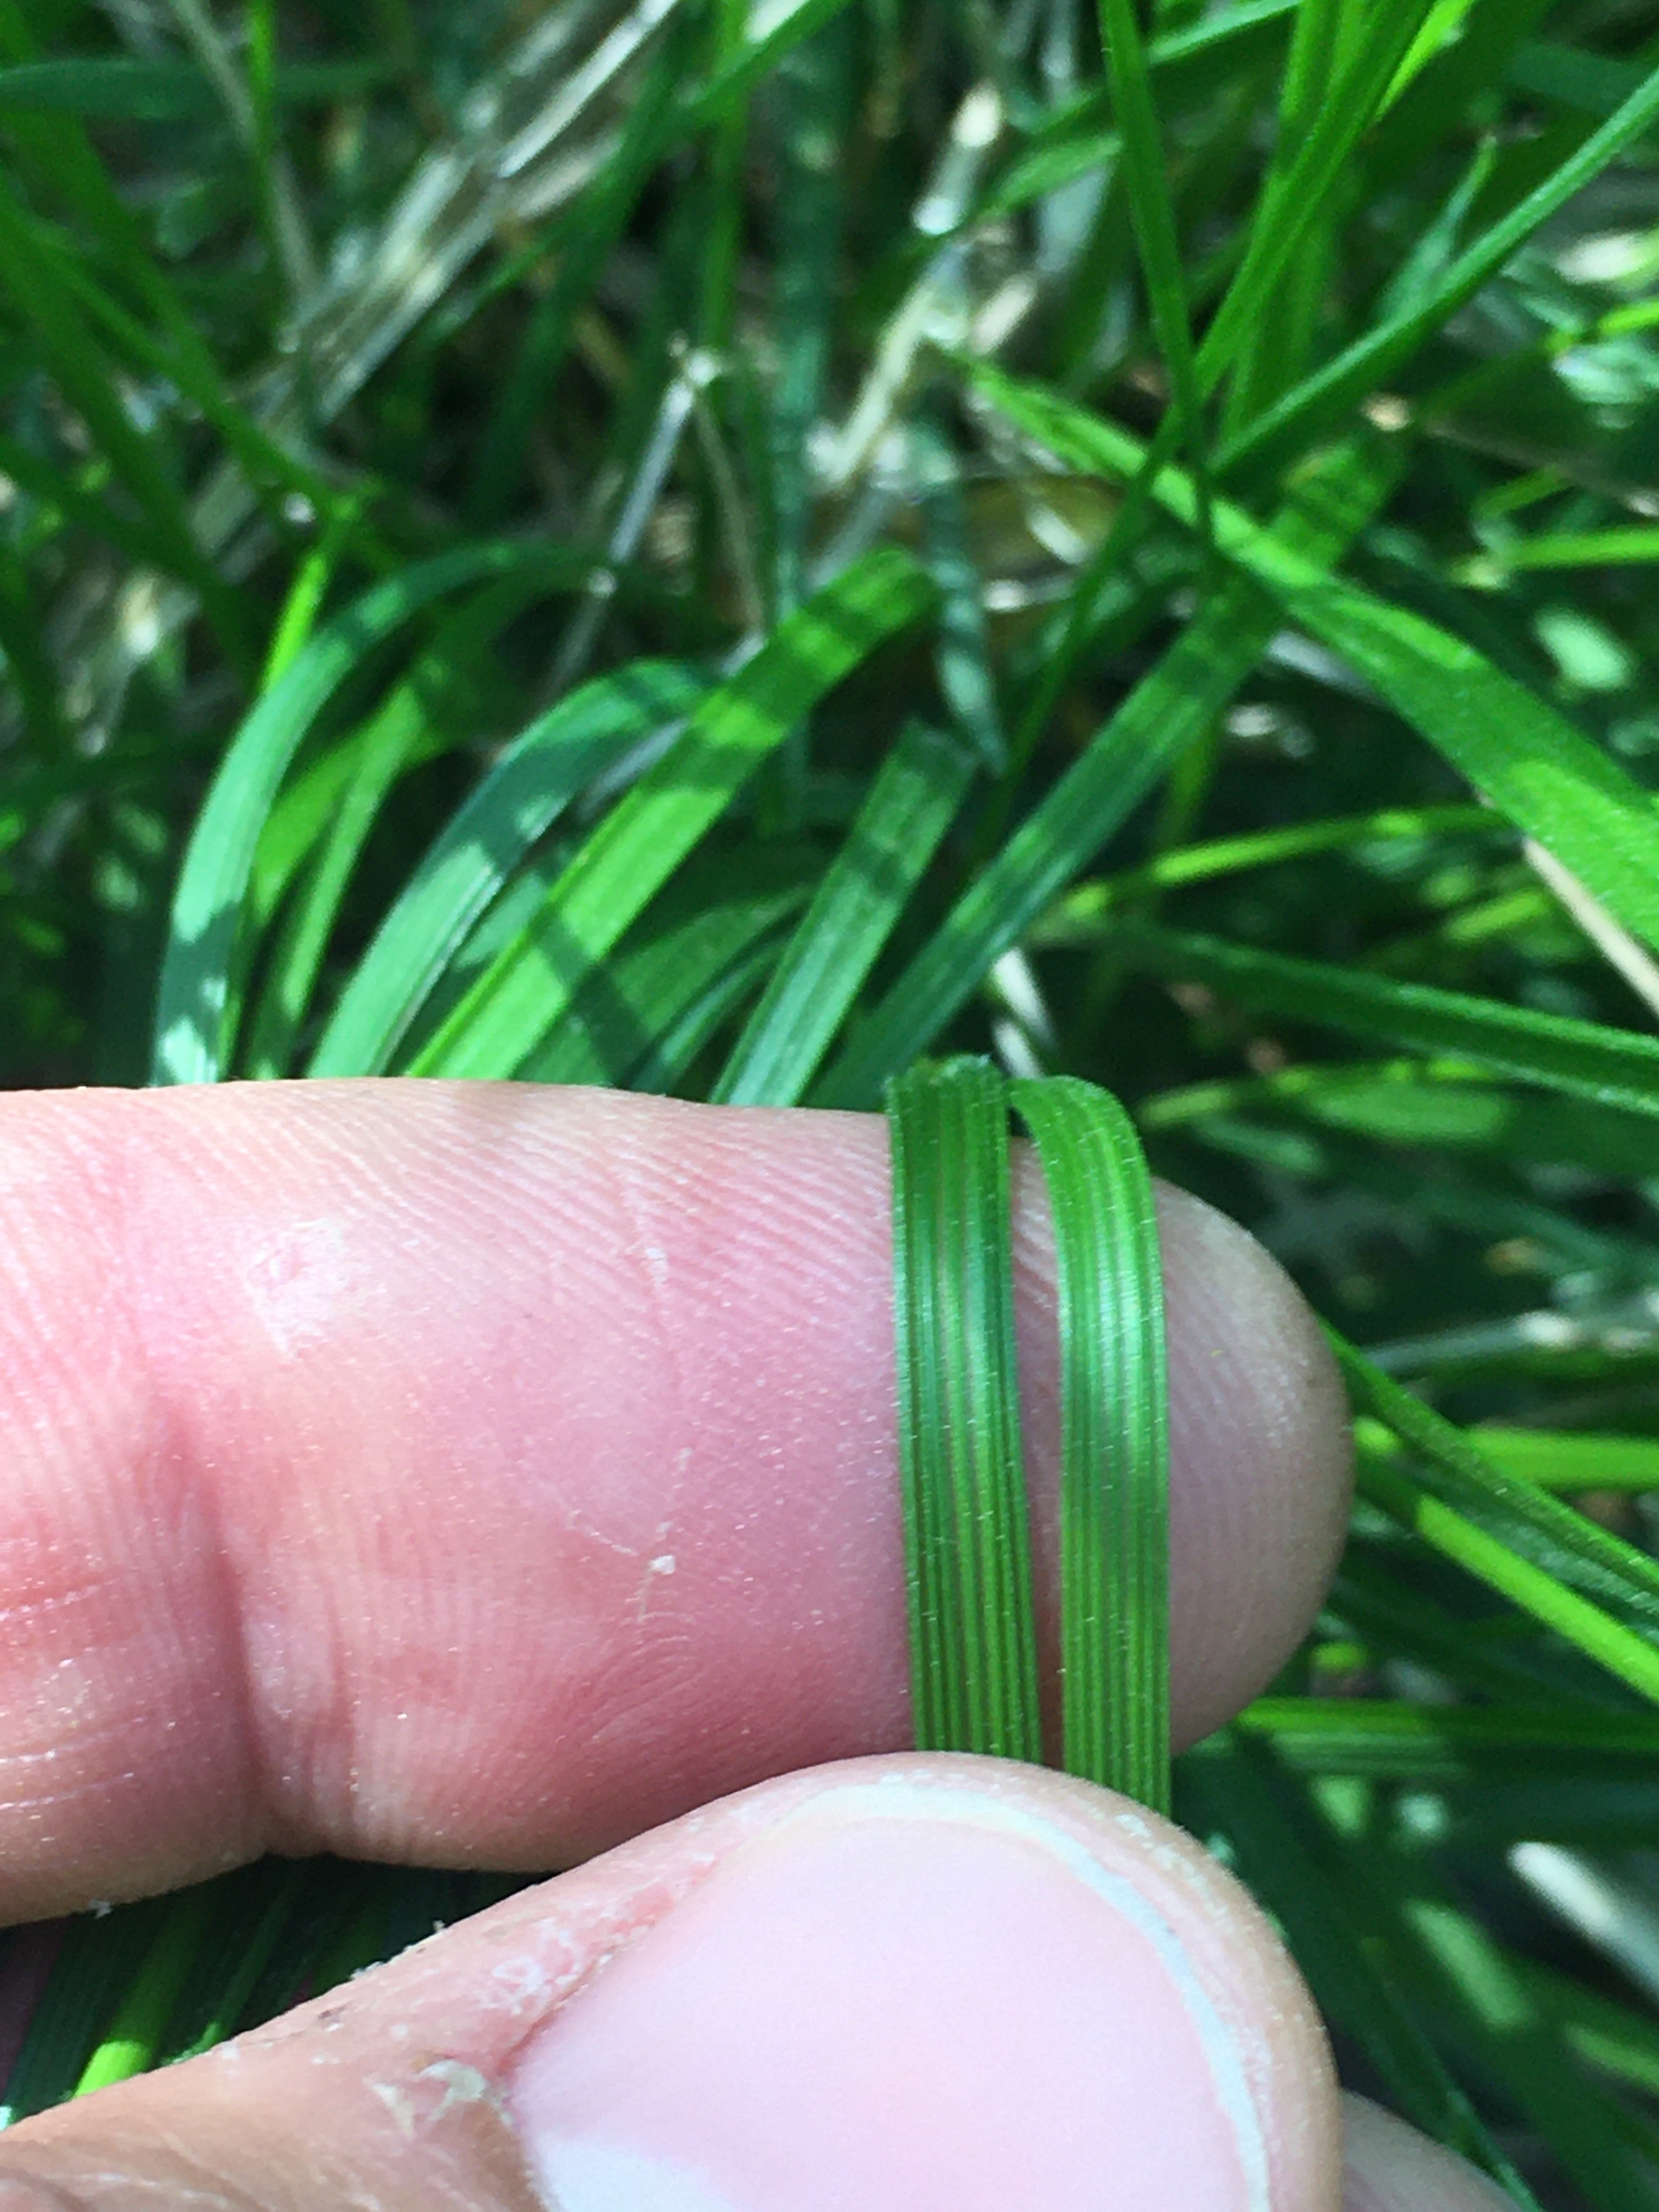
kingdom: Plantae
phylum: Tracheophyta
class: Liliopsida
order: Poales
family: Poaceae
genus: Deschampsia
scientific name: Deschampsia cespitosa
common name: Mose-bunke
